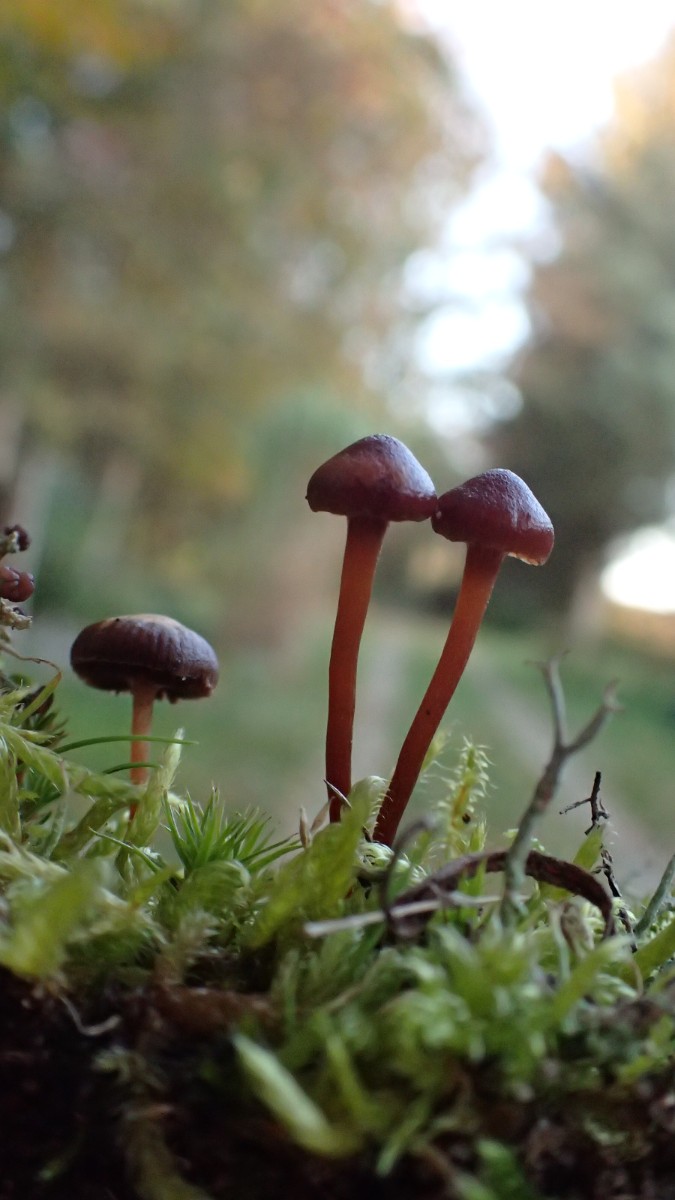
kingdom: Fungi
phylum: Basidiomycota
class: Agaricomycetes
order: Agaricales
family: Strophariaceae
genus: Deconica
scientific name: Deconica montana
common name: rødbrun stråhat
